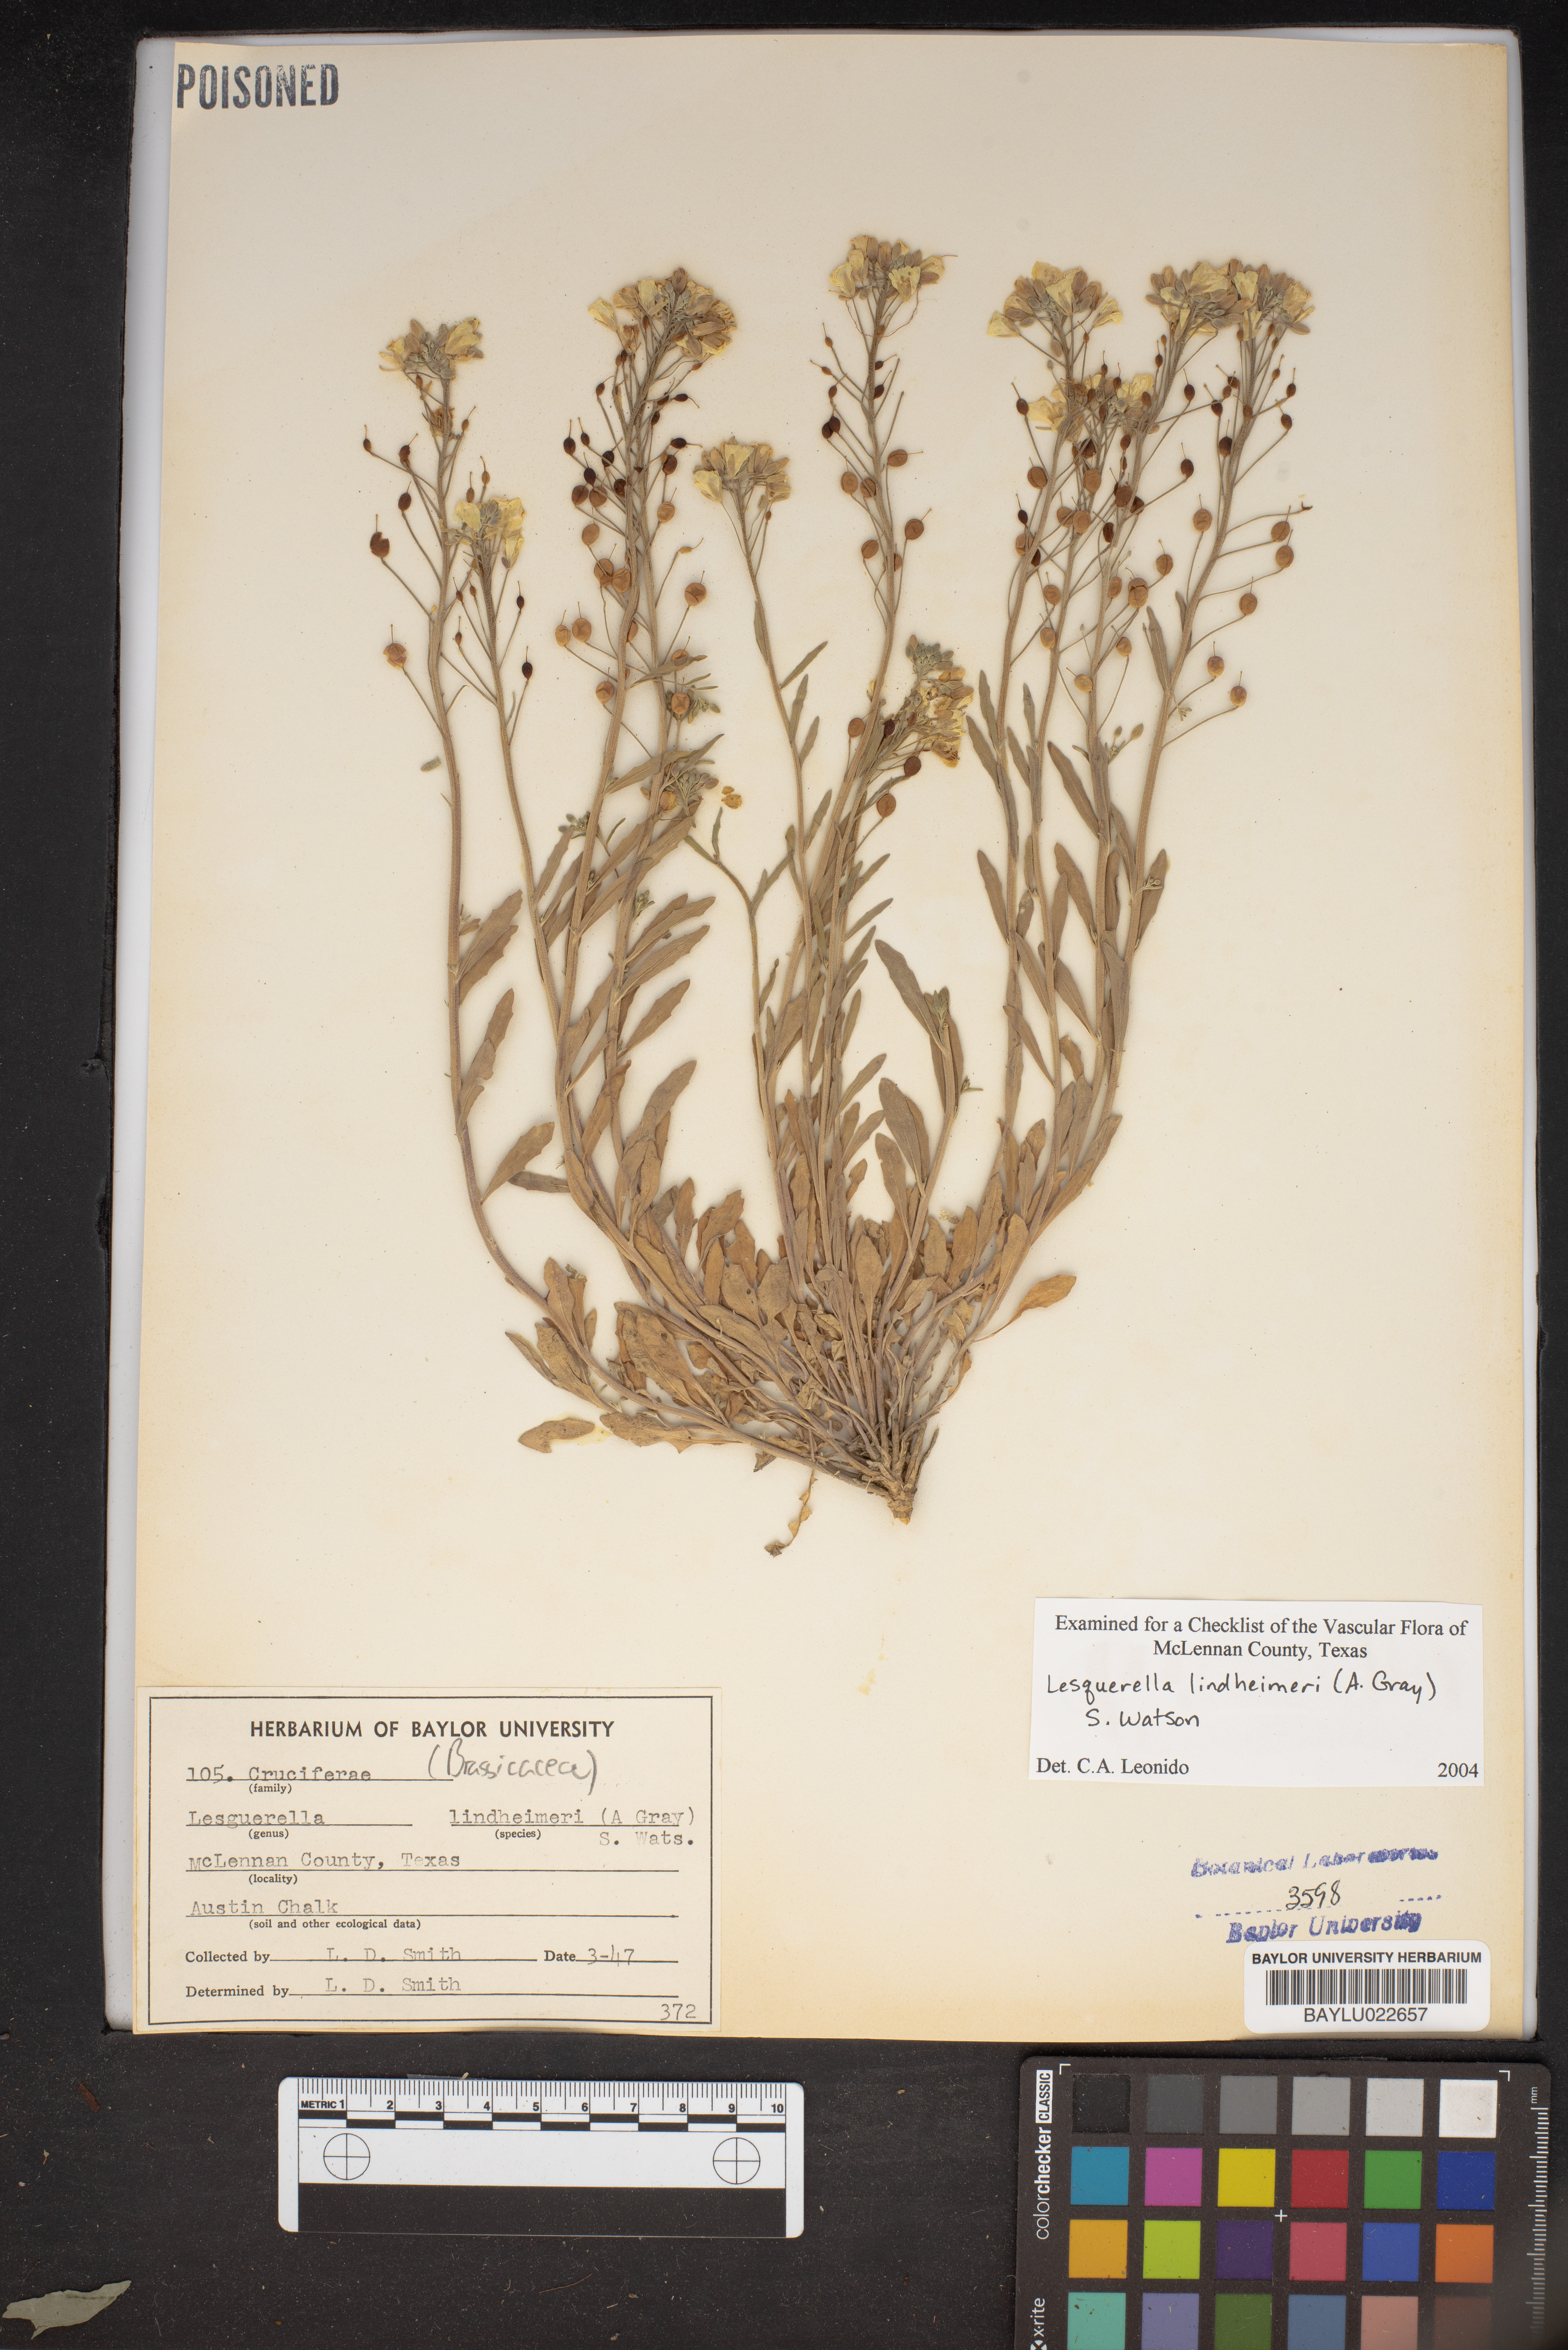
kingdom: Plantae
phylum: Tracheophyta
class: Magnoliopsida
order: Brassicales
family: Brassicaceae
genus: Physaria
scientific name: Physaria lindheimeri
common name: Lindheimer's bladderpod
